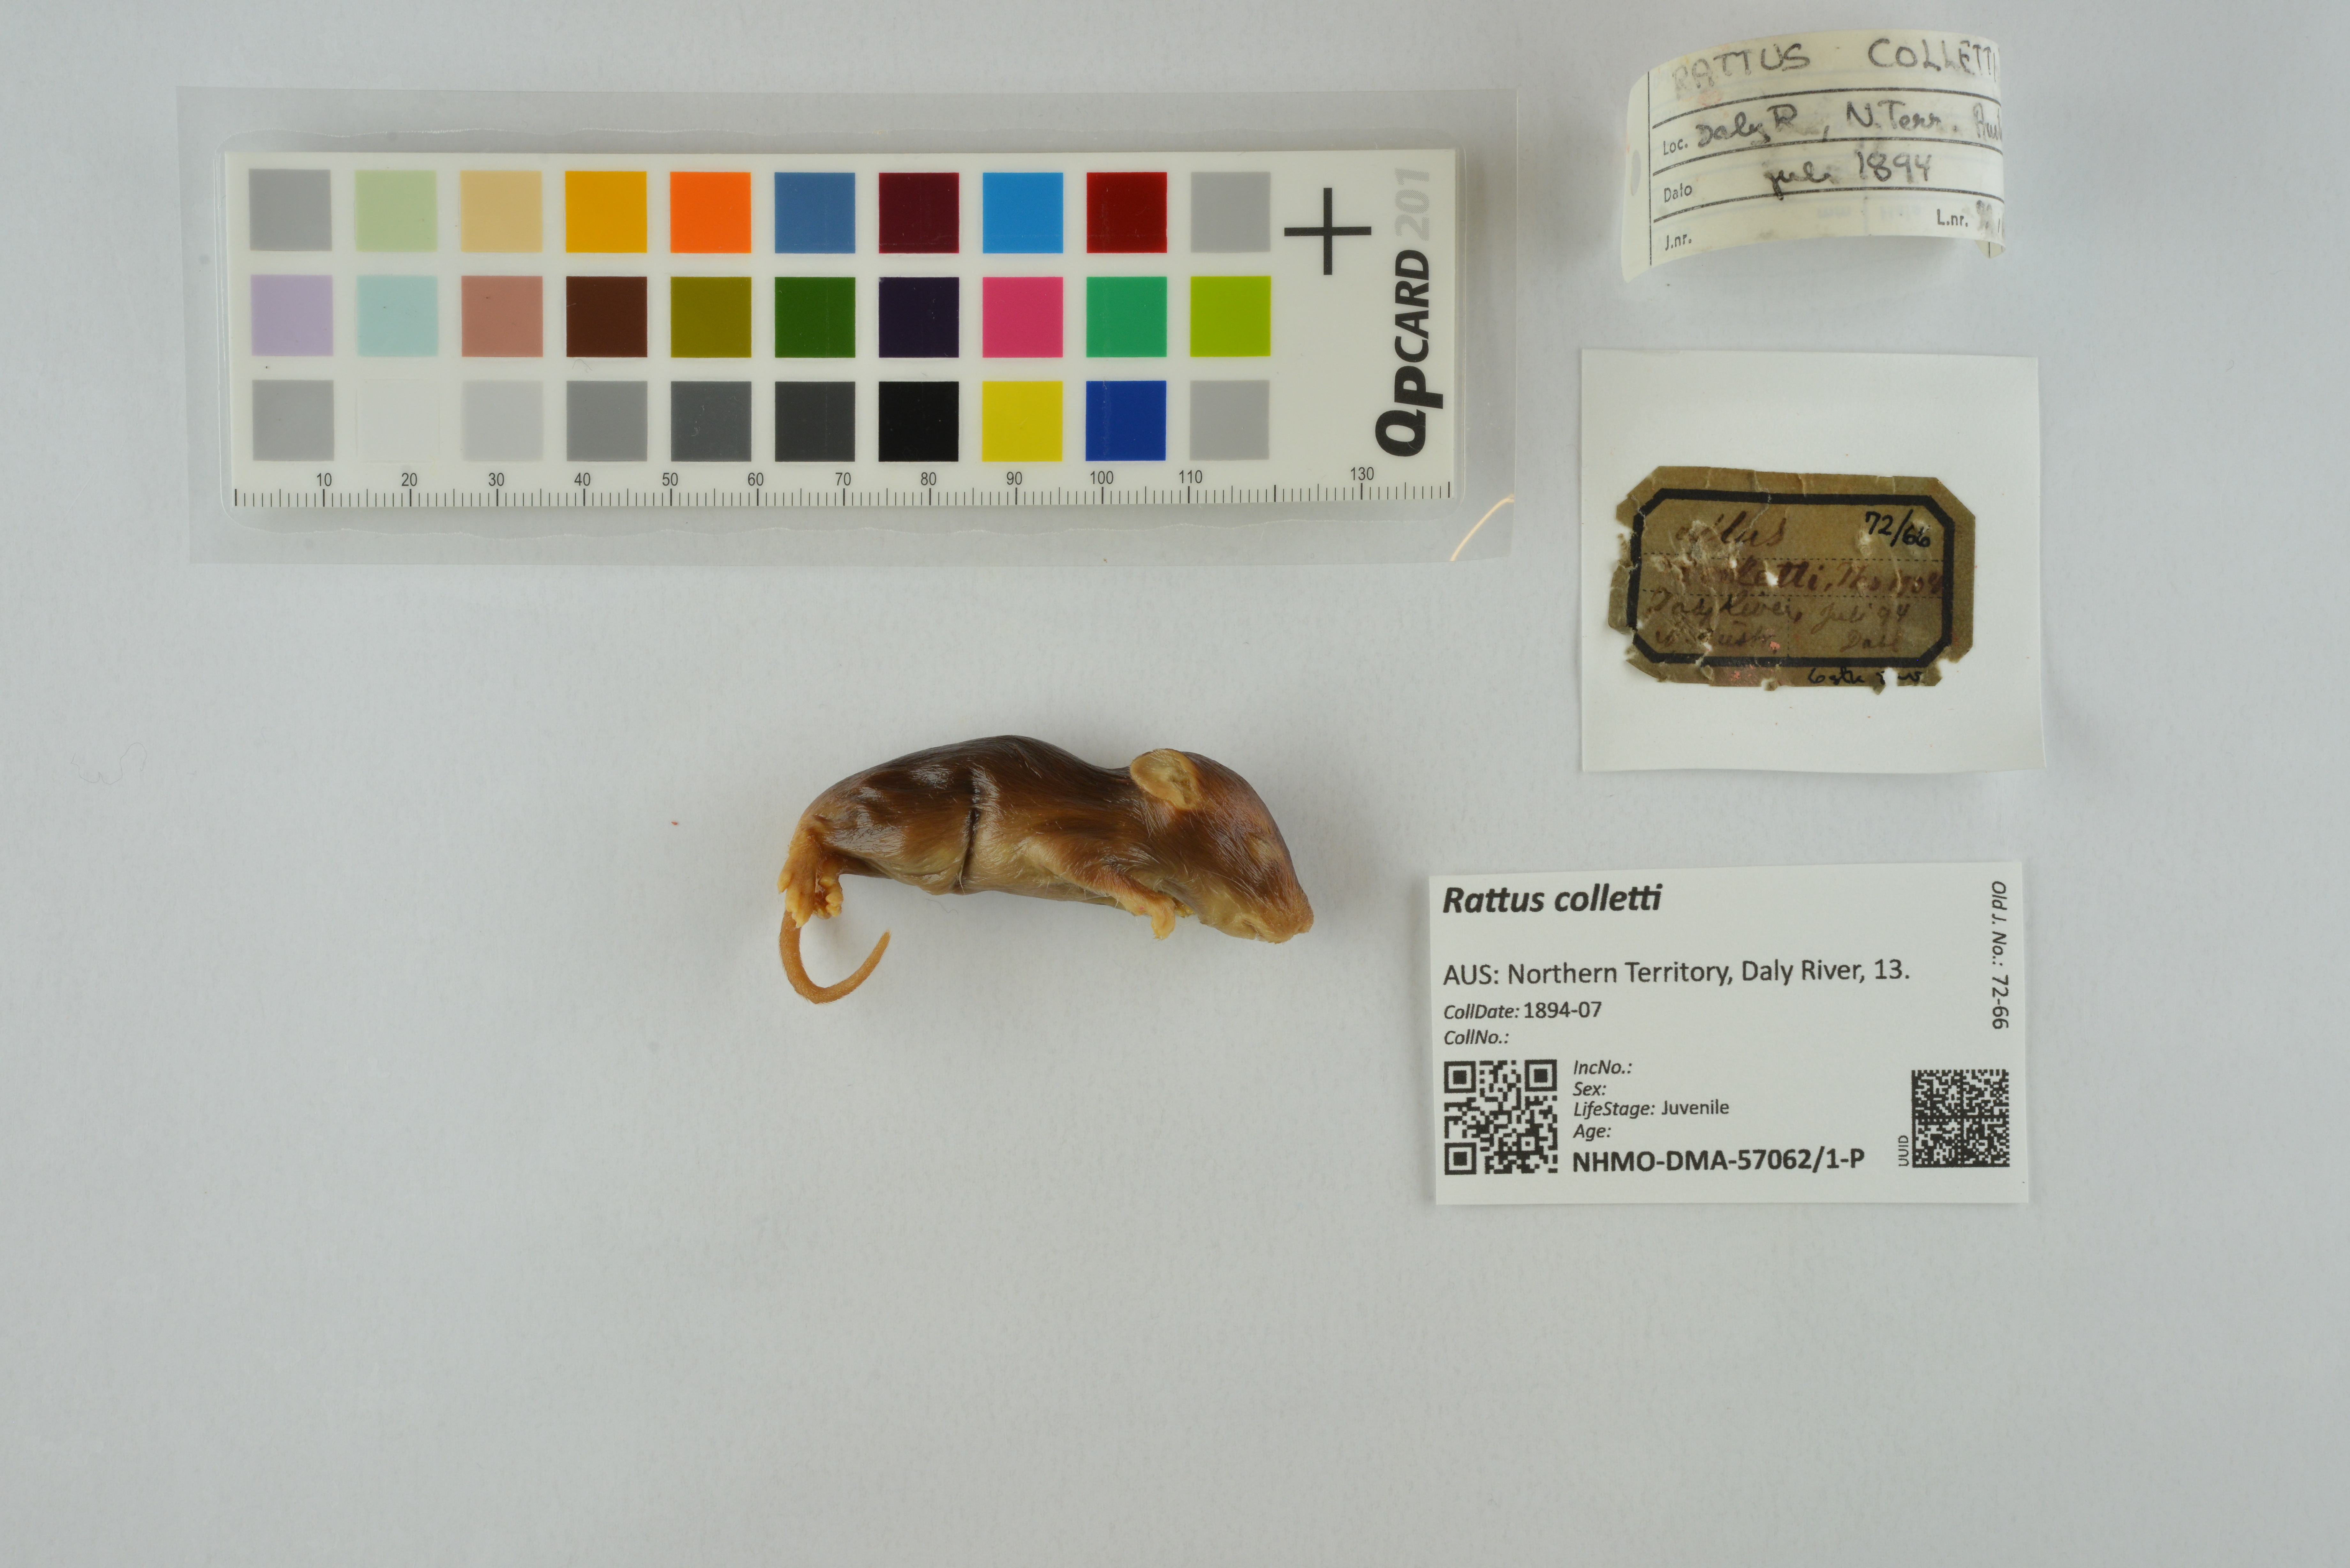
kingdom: Animalia
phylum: Chordata
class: Mammalia
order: Rodentia
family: Muridae
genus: Rattus
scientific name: Rattus colletti
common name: Australian dusky rat
